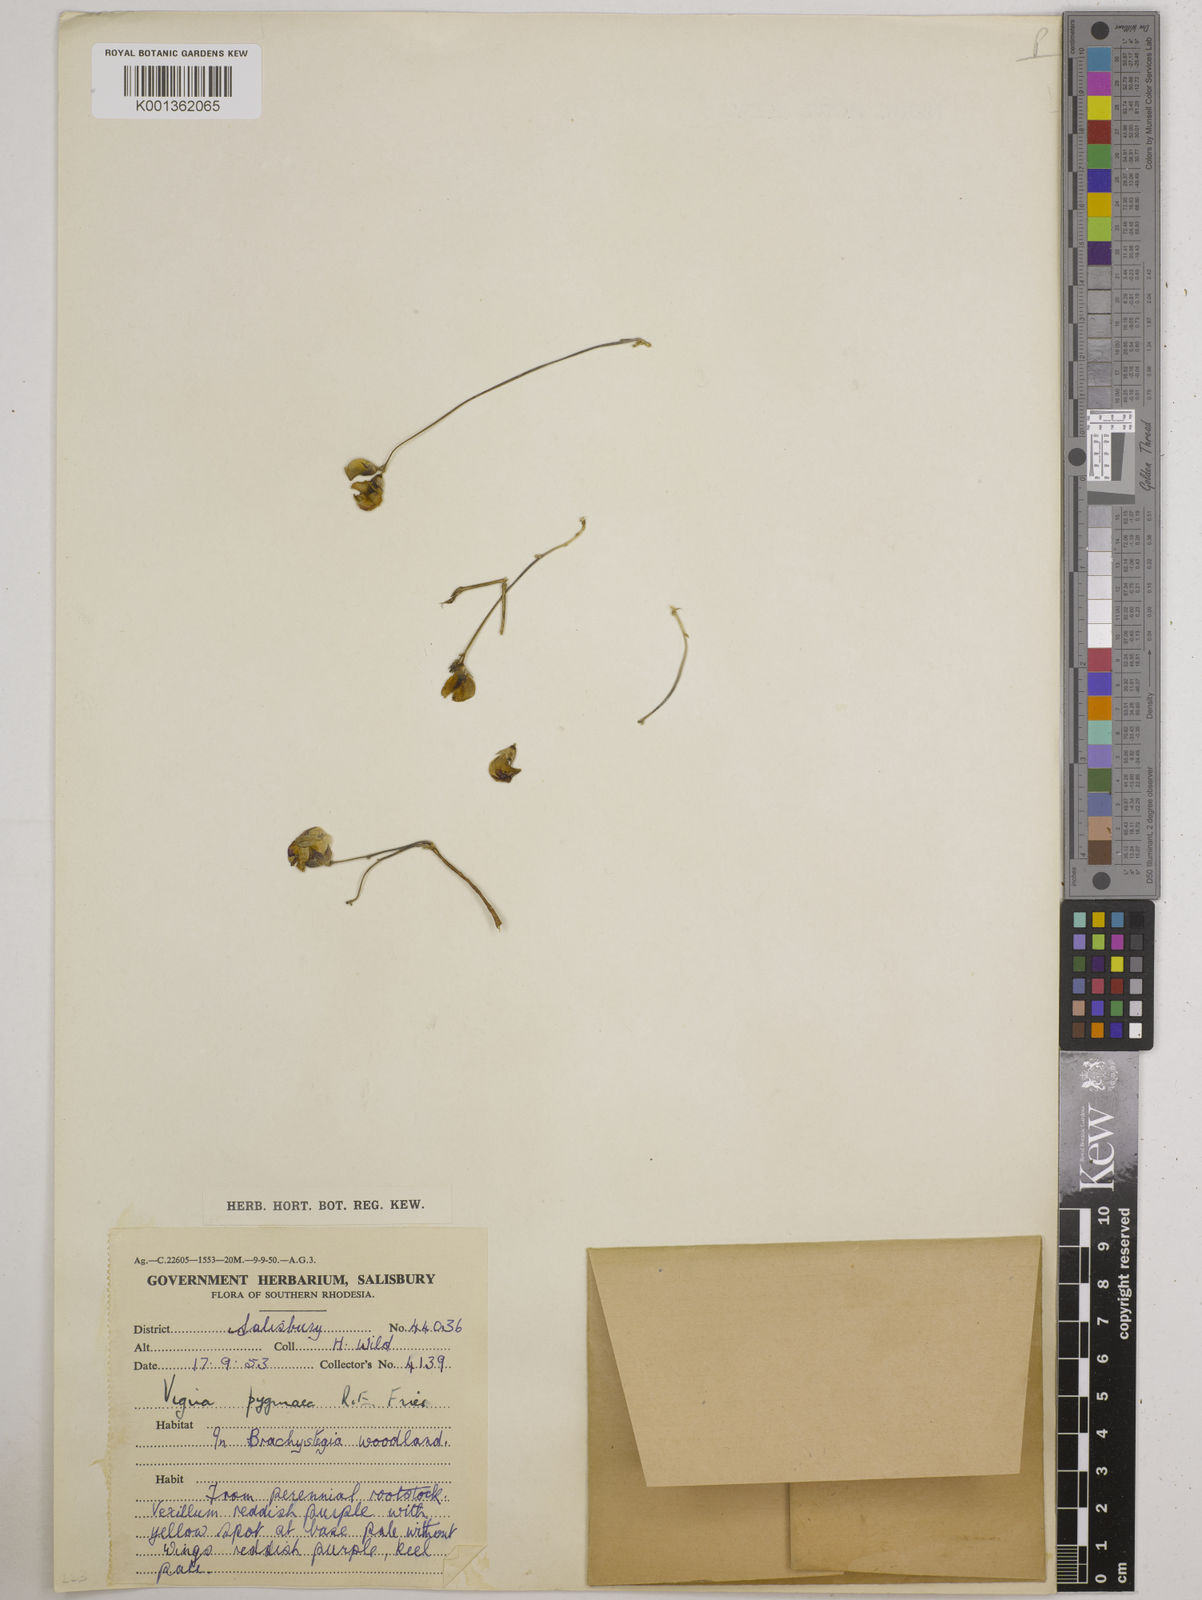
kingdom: Plantae
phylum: Tracheophyta
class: Magnoliopsida
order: Fabales
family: Fabaceae
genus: Vigna
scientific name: Vigna pygmaea
